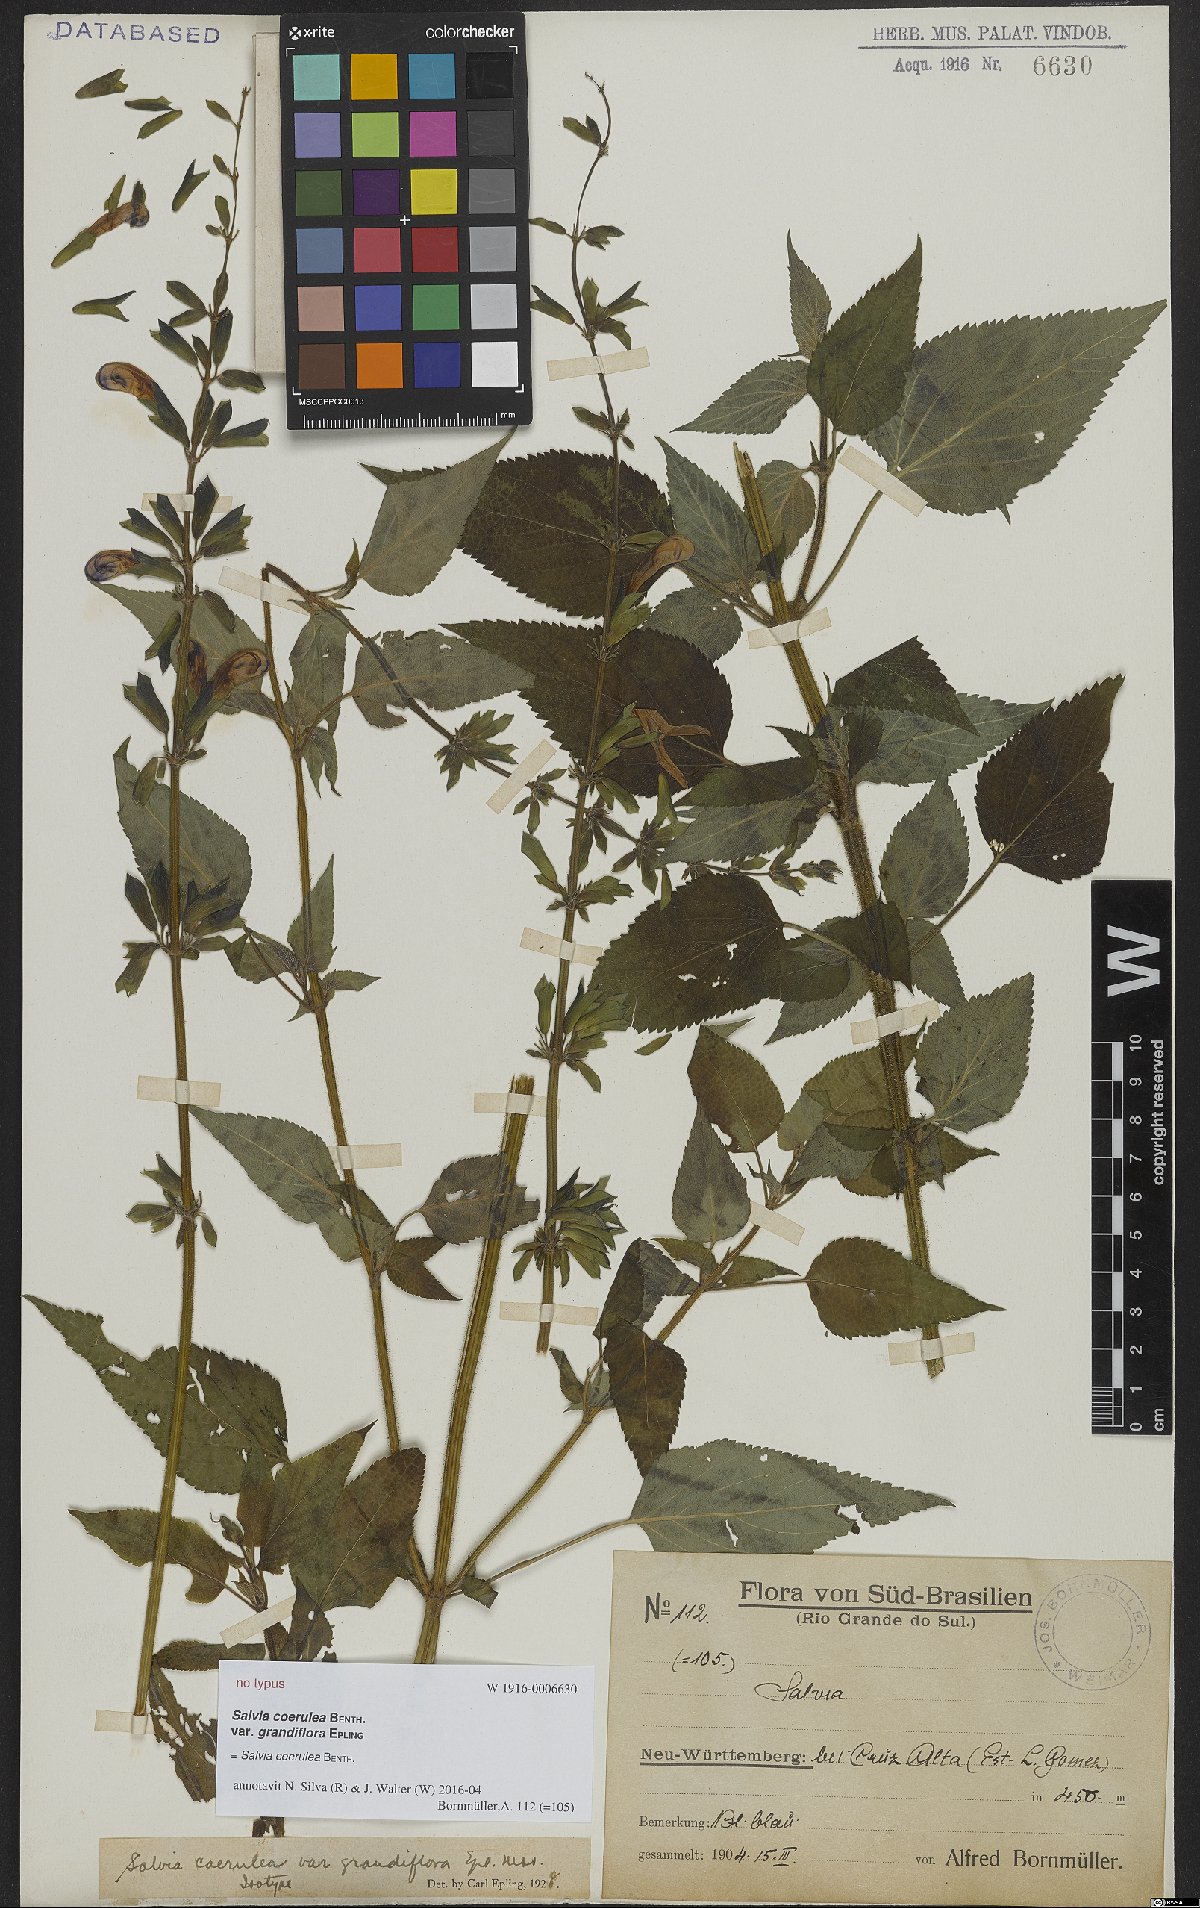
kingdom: Plantae
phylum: Tracheophyta
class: Magnoliopsida
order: Lamiales
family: Lamiaceae
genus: Salvia
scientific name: Salvia lamiifolia
